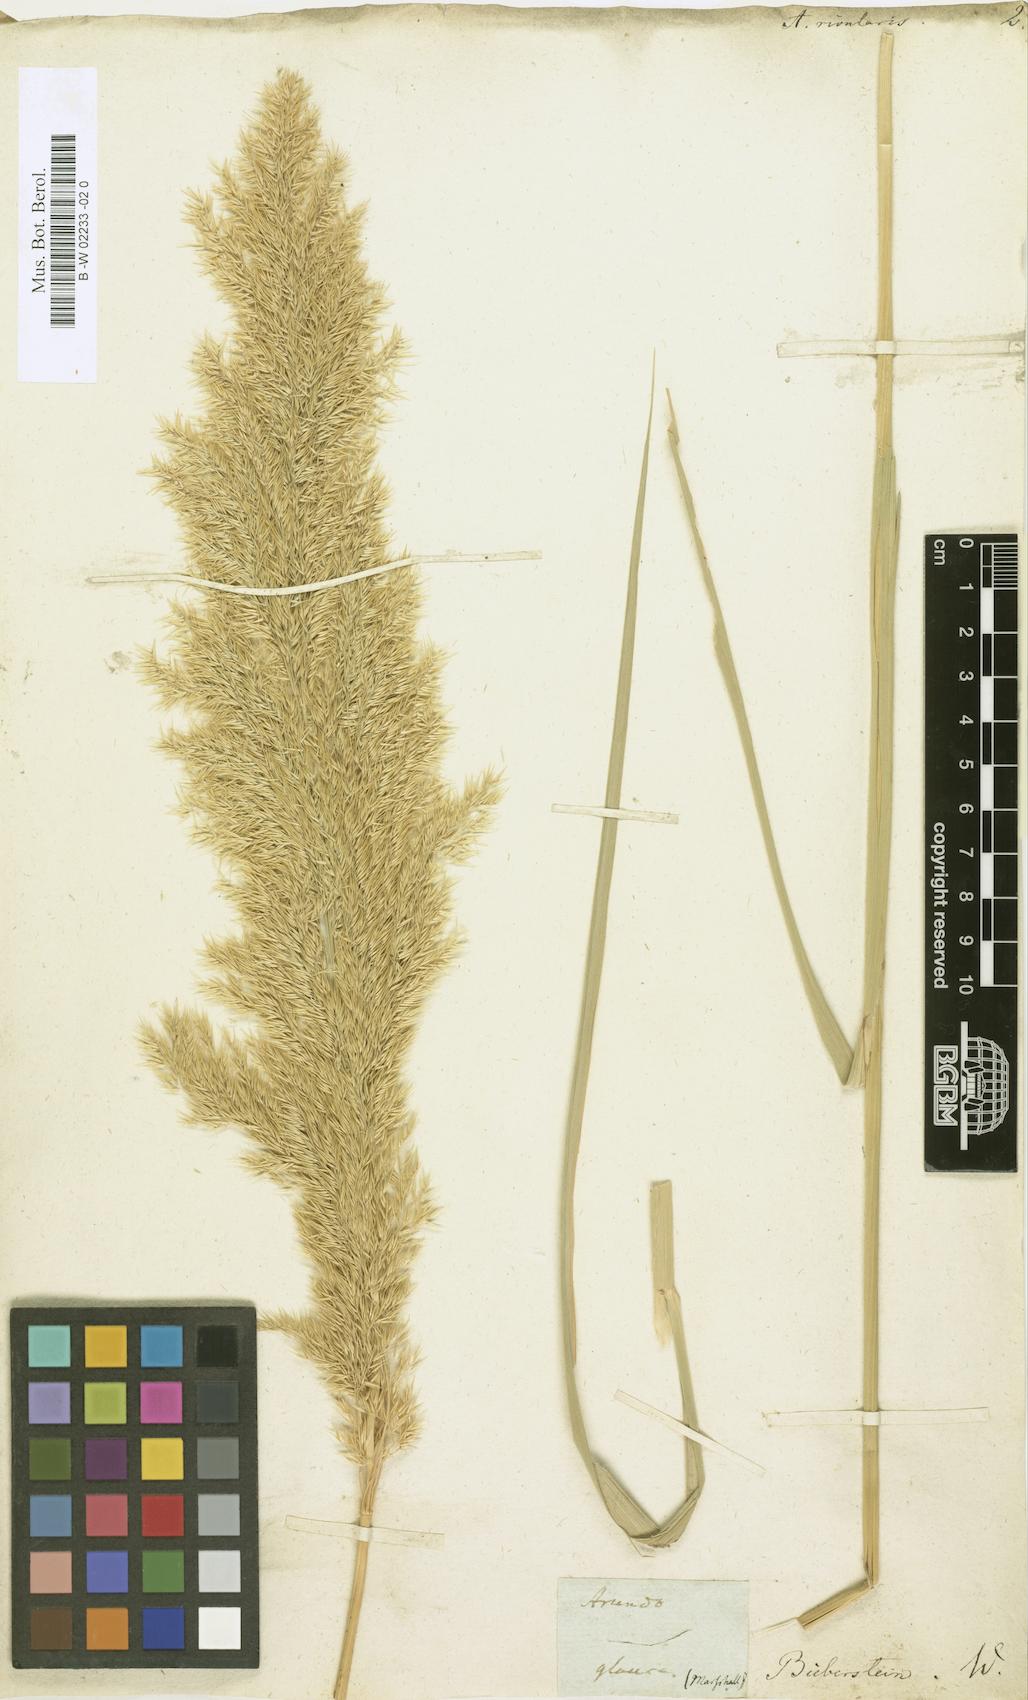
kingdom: Plantae
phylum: Tracheophyta
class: Liliopsida
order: Poales
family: Poaceae
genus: Phragmites
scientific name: Phragmites australis
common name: Common reed
